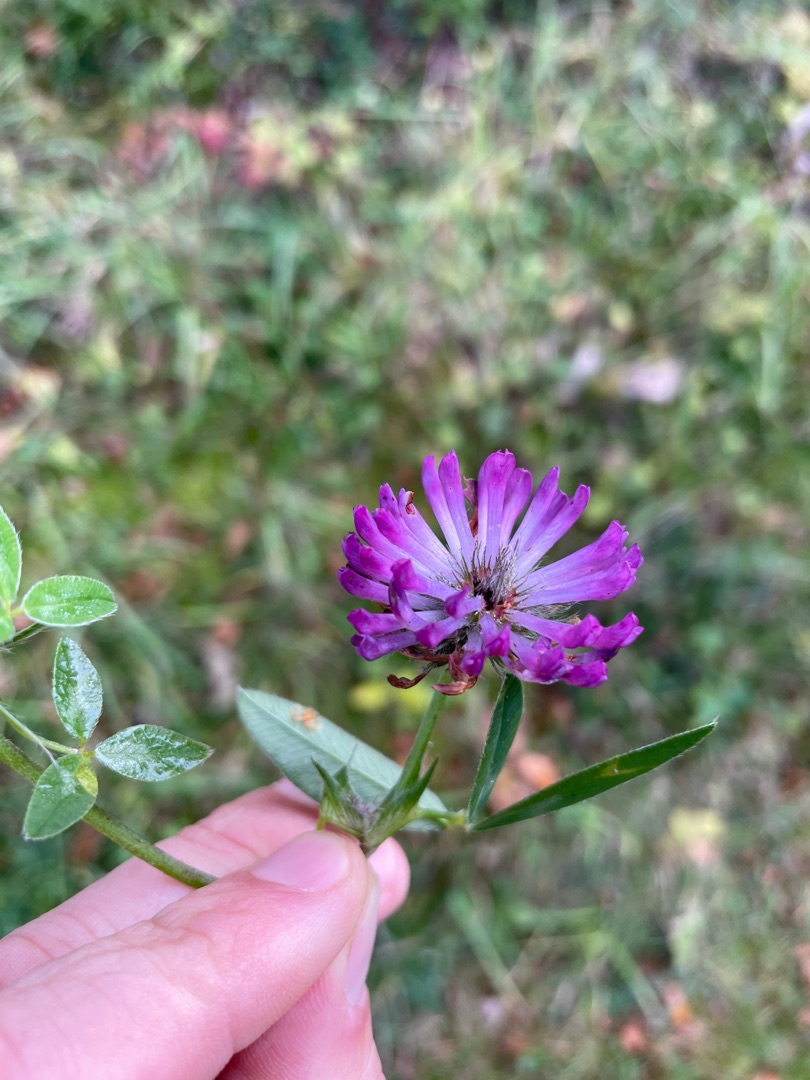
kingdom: Plantae
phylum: Tracheophyta
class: Magnoliopsida
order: Fabales
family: Fabaceae
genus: Trifolium
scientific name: Trifolium medium
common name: Bugtet kløver
